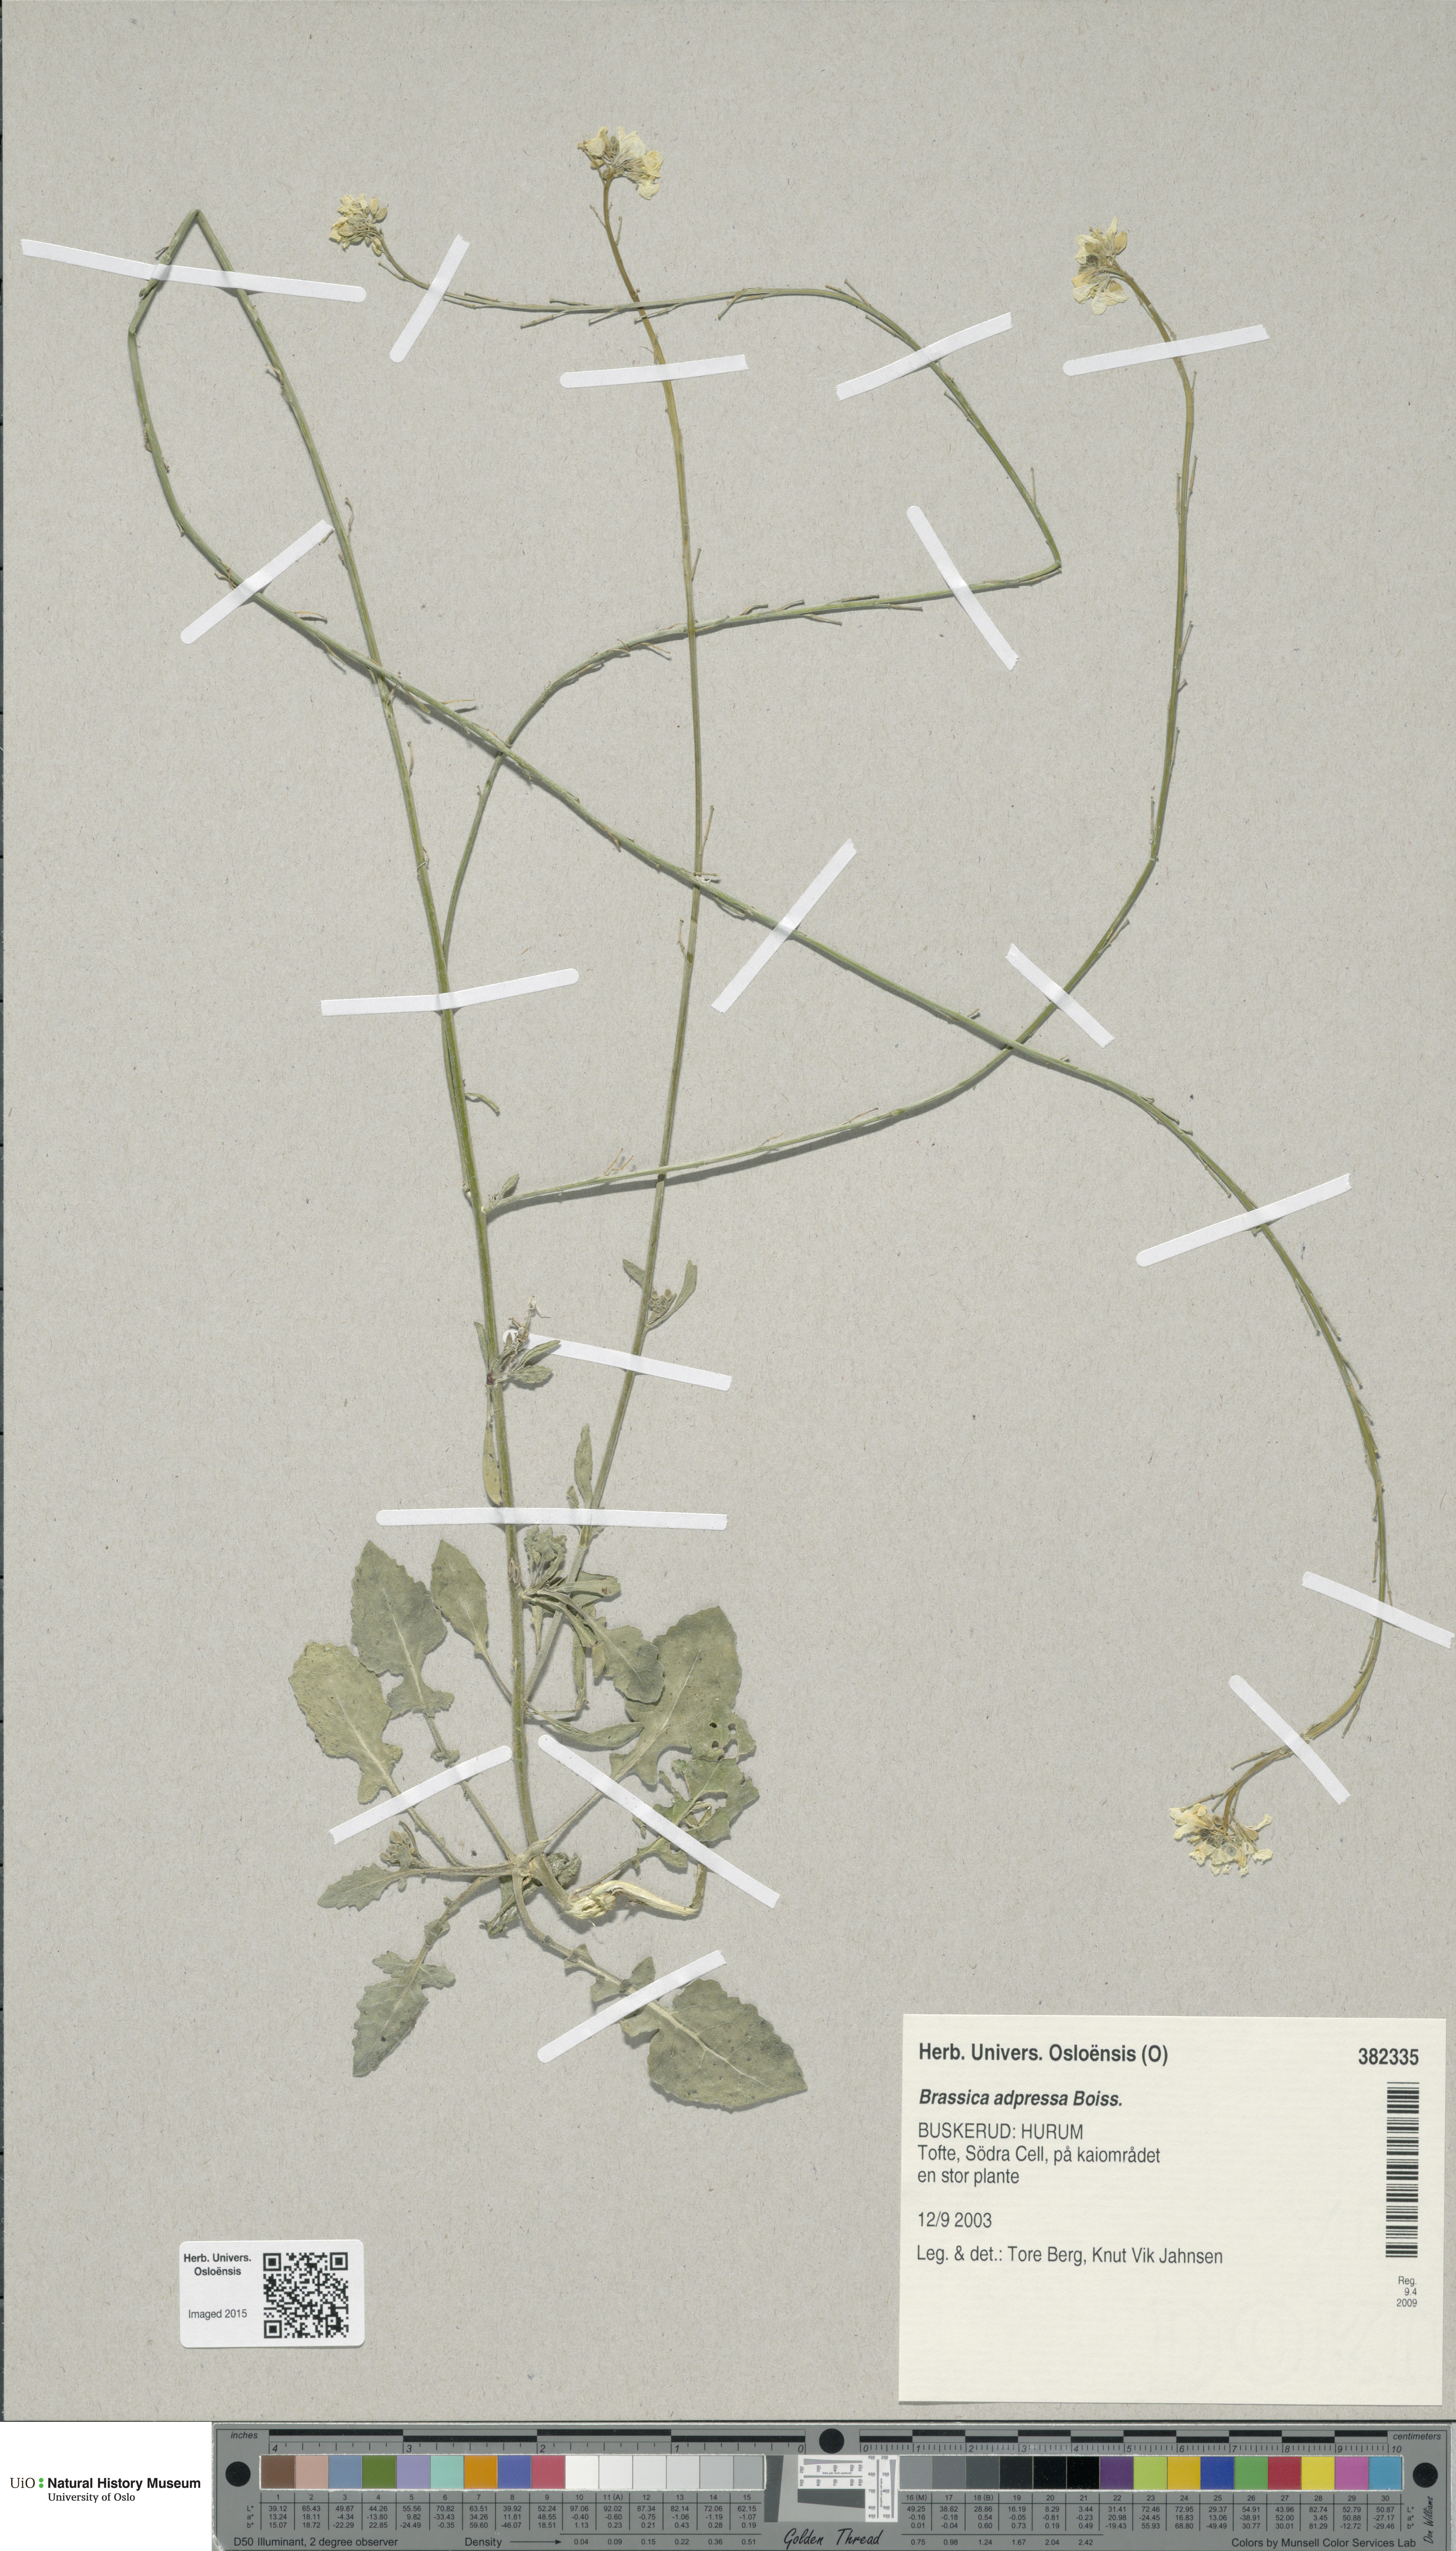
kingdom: Plantae
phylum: Tracheophyta
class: Magnoliopsida
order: Brassicales
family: Brassicaceae
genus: Hirschfeldia
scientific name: Hirschfeldia incana
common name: Hoary mustard
